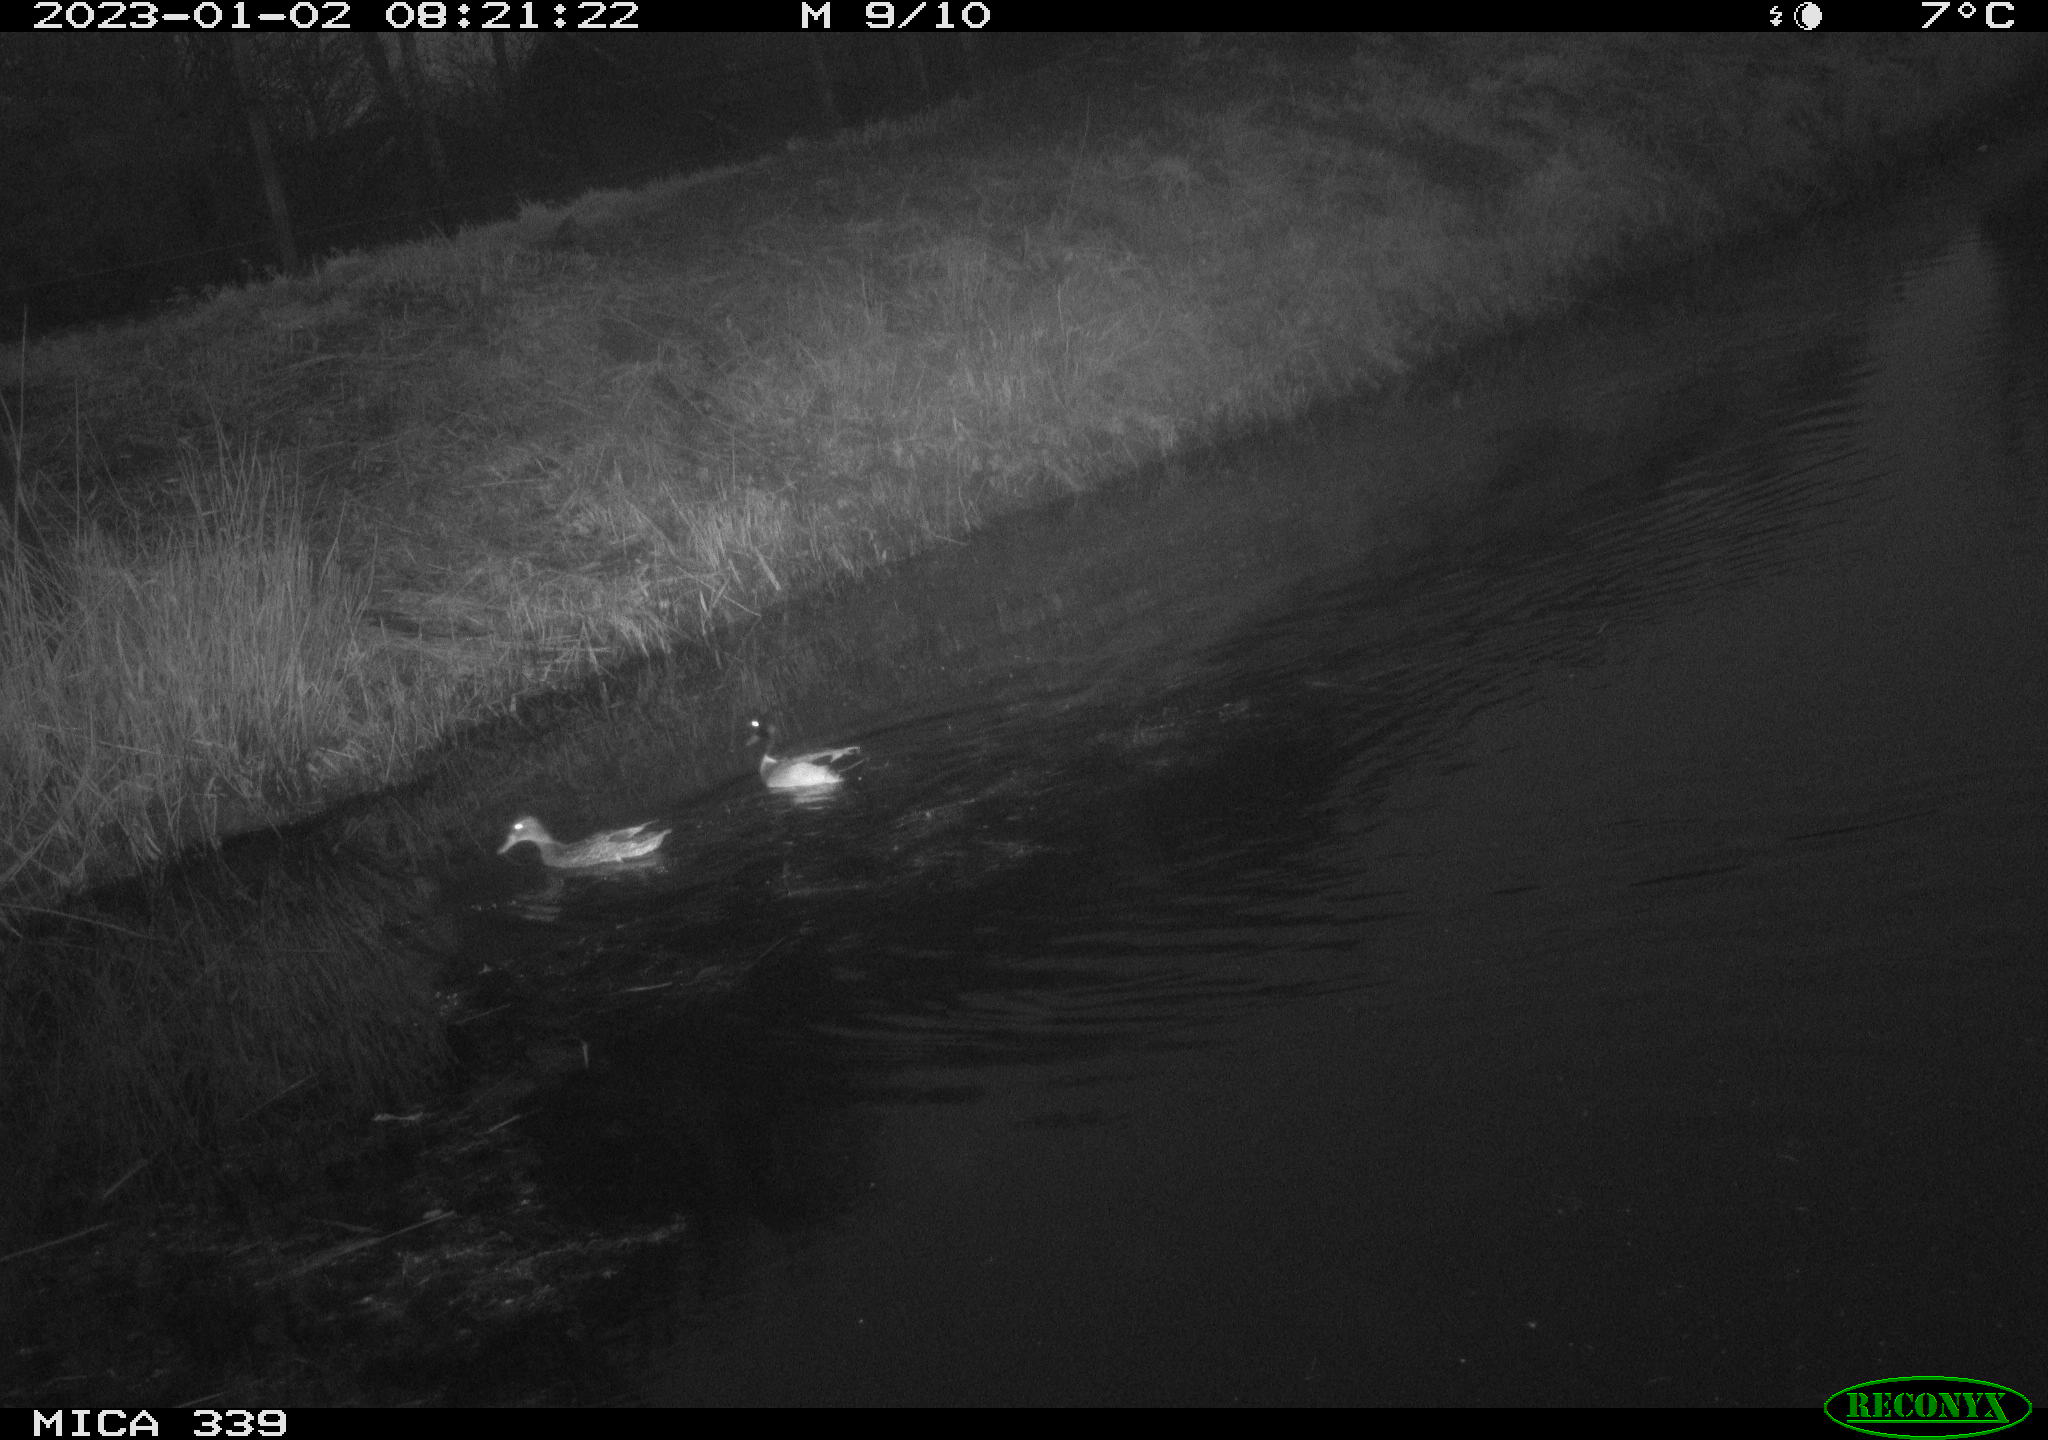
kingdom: Animalia
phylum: Chordata
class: Aves
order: Anseriformes
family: Anatidae
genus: Anas
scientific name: Anas
